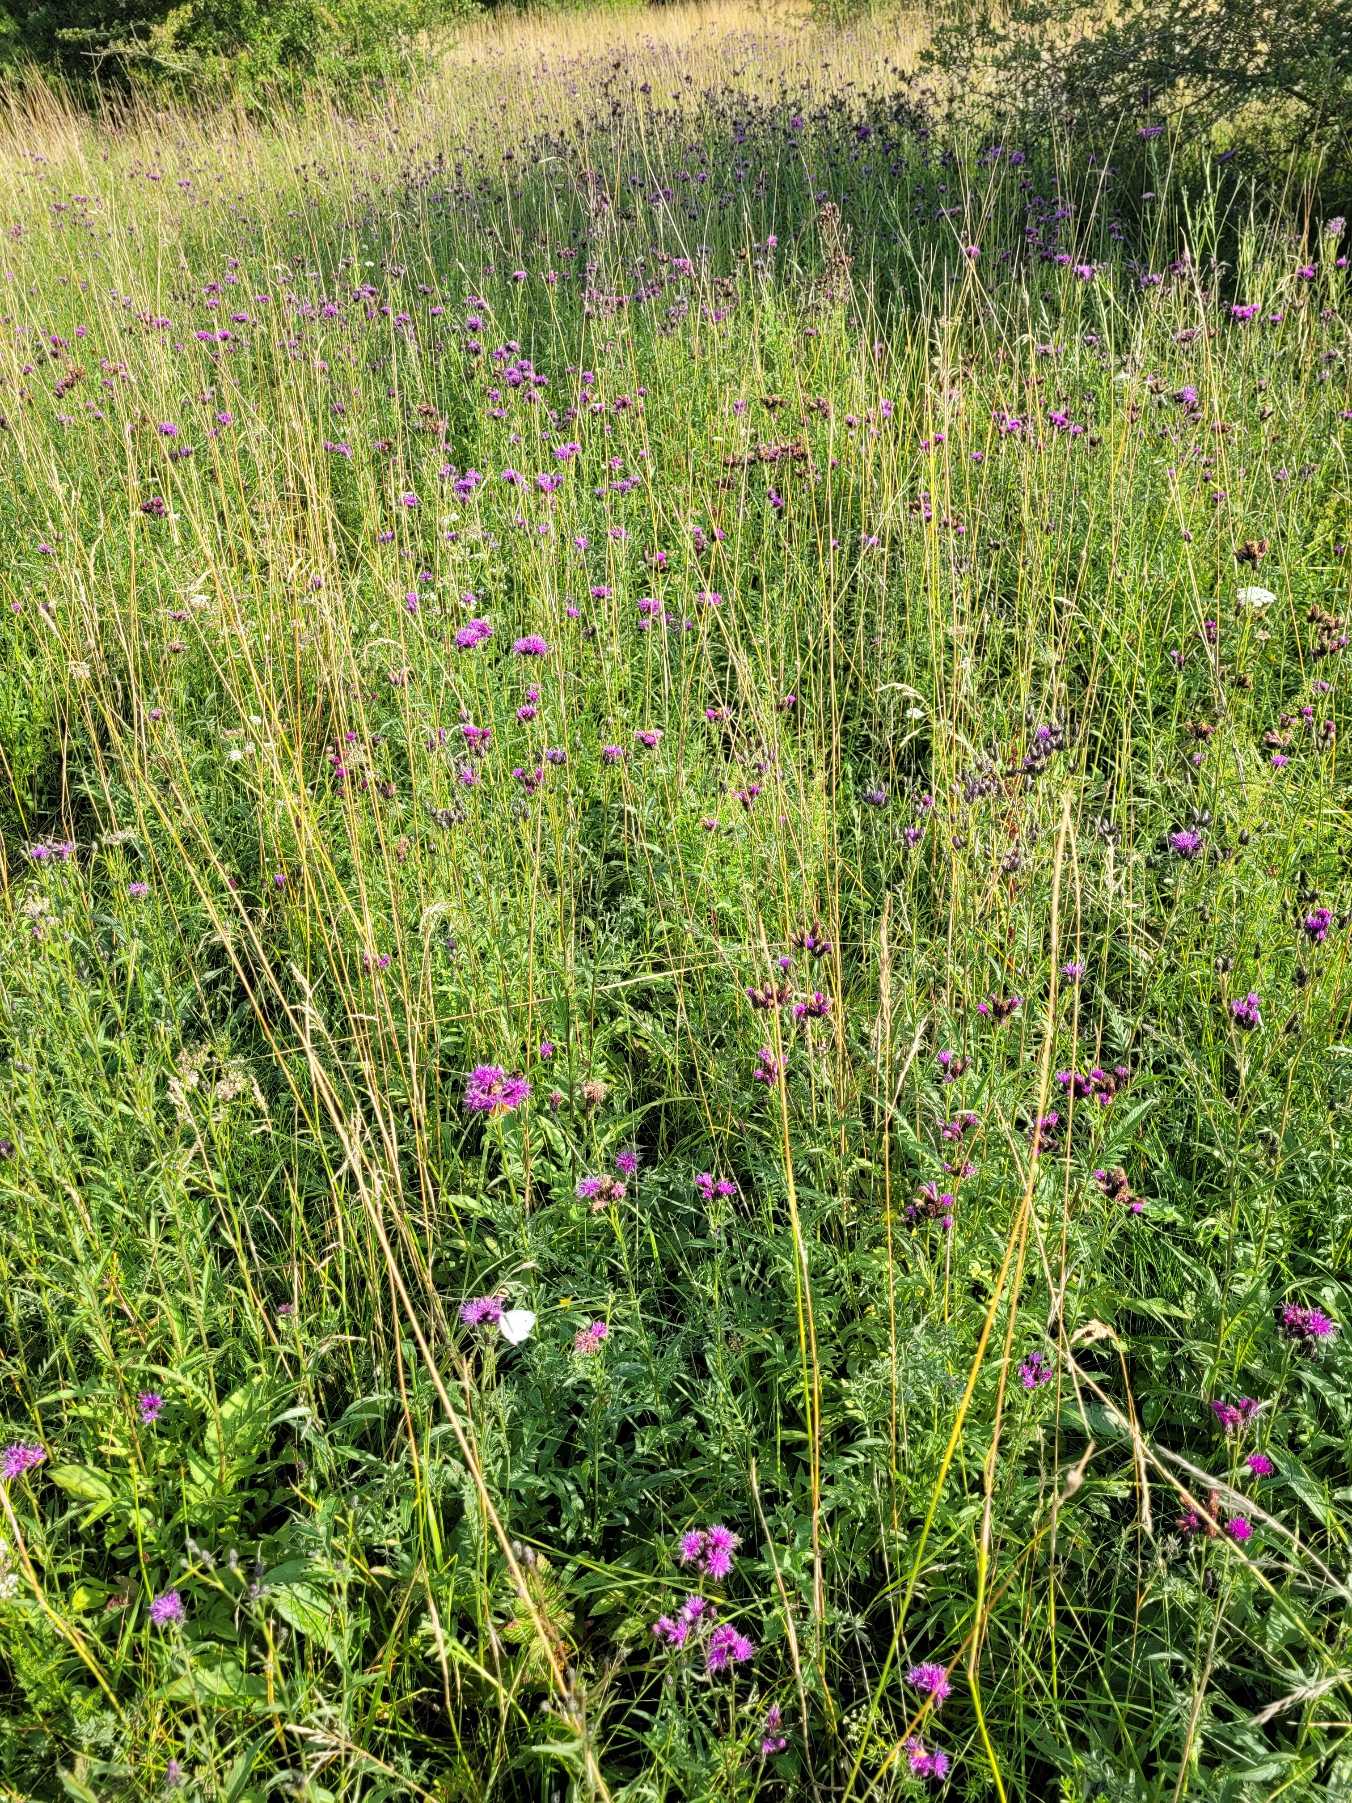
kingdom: Plantae
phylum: Tracheophyta
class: Magnoliopsida
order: Asterales
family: Asteraceae
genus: Serratula
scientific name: Serratula tinctoria
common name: Eng-skær
